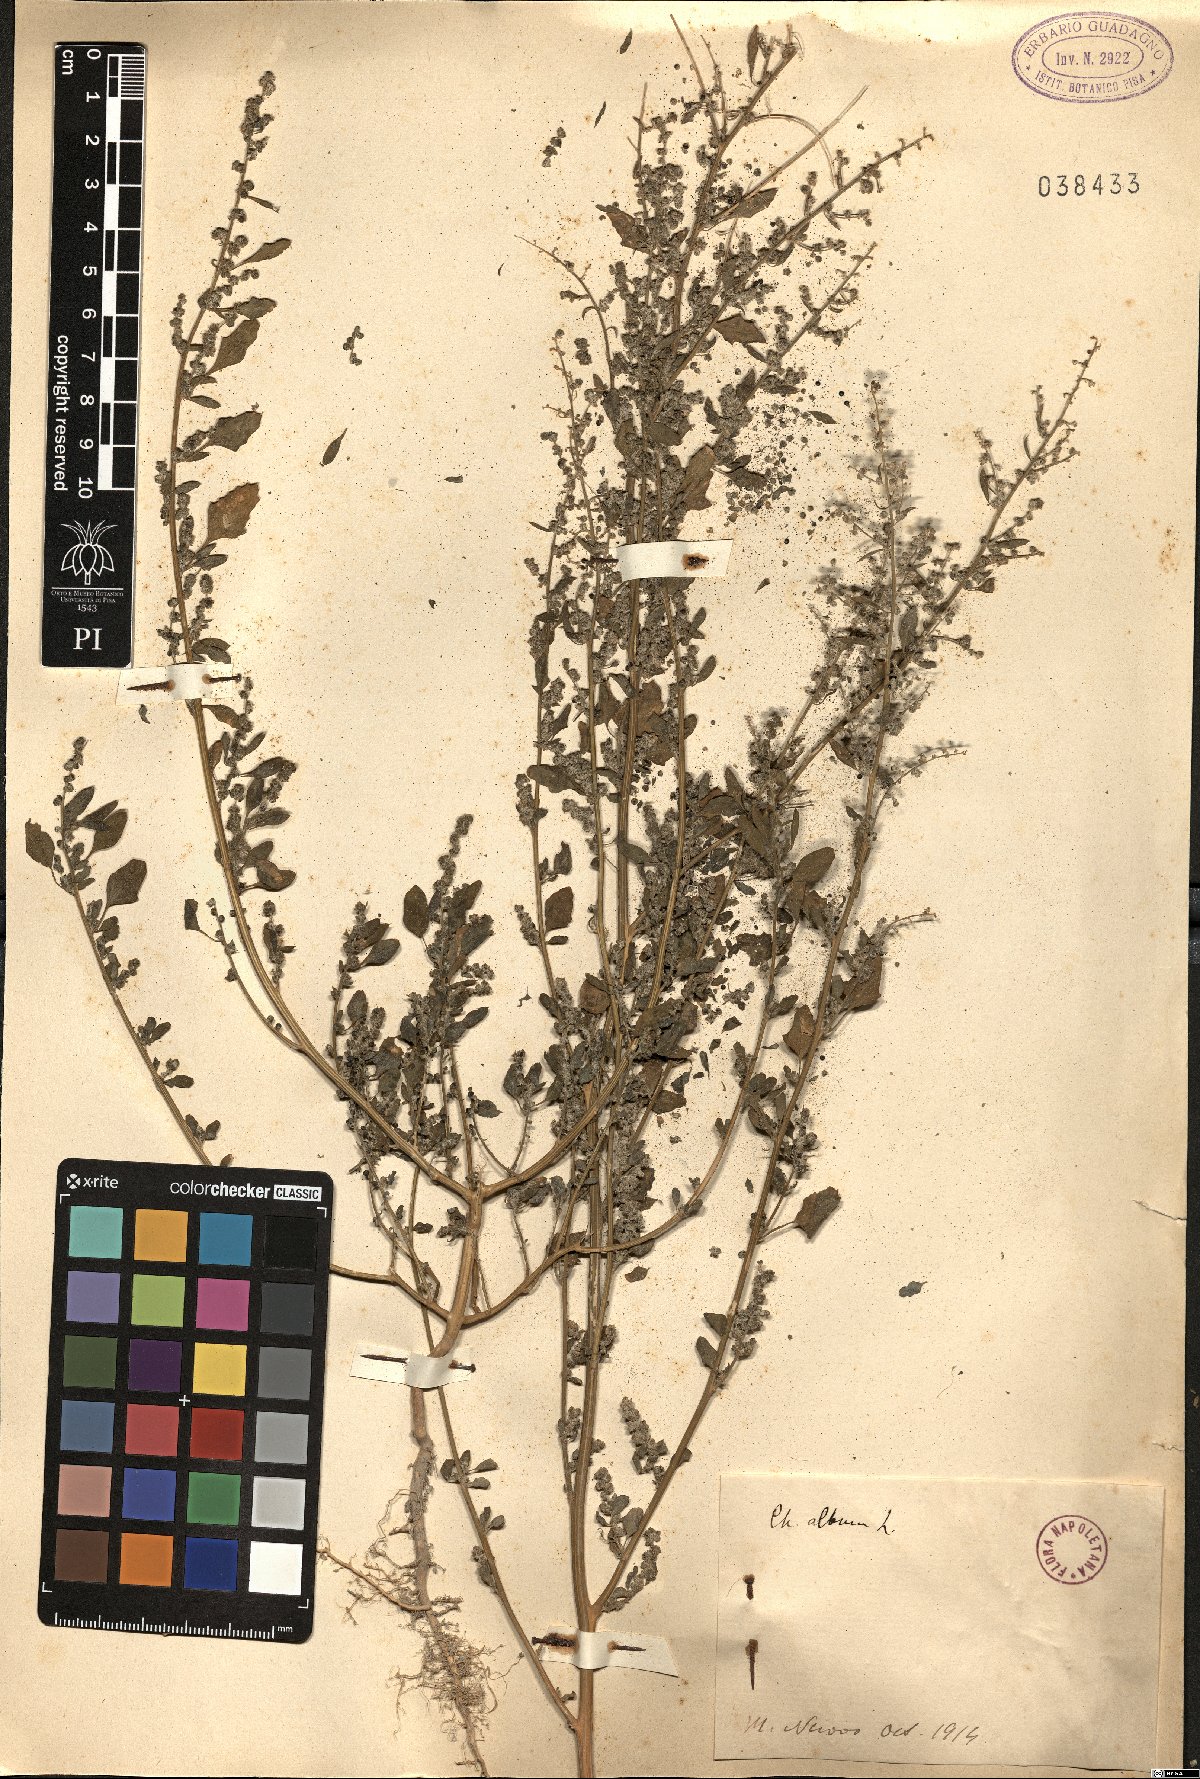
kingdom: Plantae
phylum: Tracheophyta
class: Magnoliopsida
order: Caryophyllales
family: Amaranthaceae
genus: Chenopodium
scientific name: Chenopodium album
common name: Fat-hen
